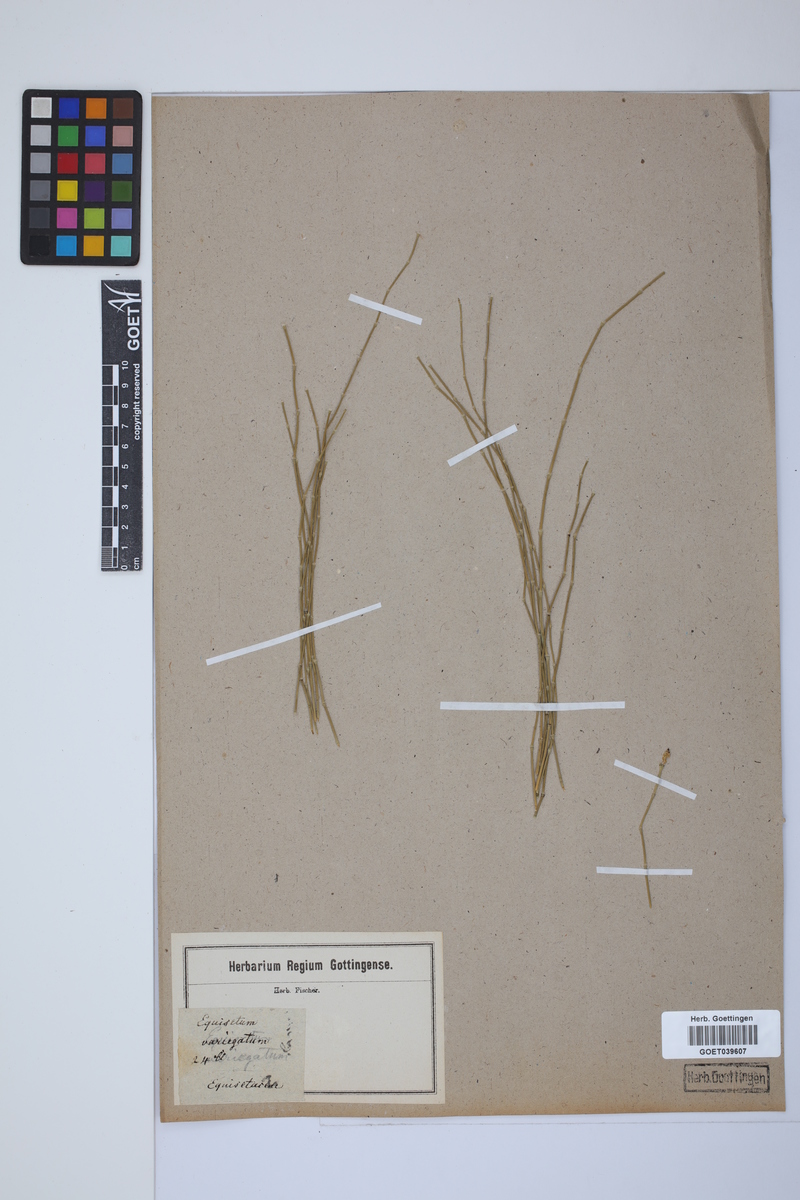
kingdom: Plantae
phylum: Tracheophyta
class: Polypodiopsida
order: Equisetales
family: Equisetaceae
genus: Equisetum
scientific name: Equisetum variegatum
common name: Variegated horsetail
